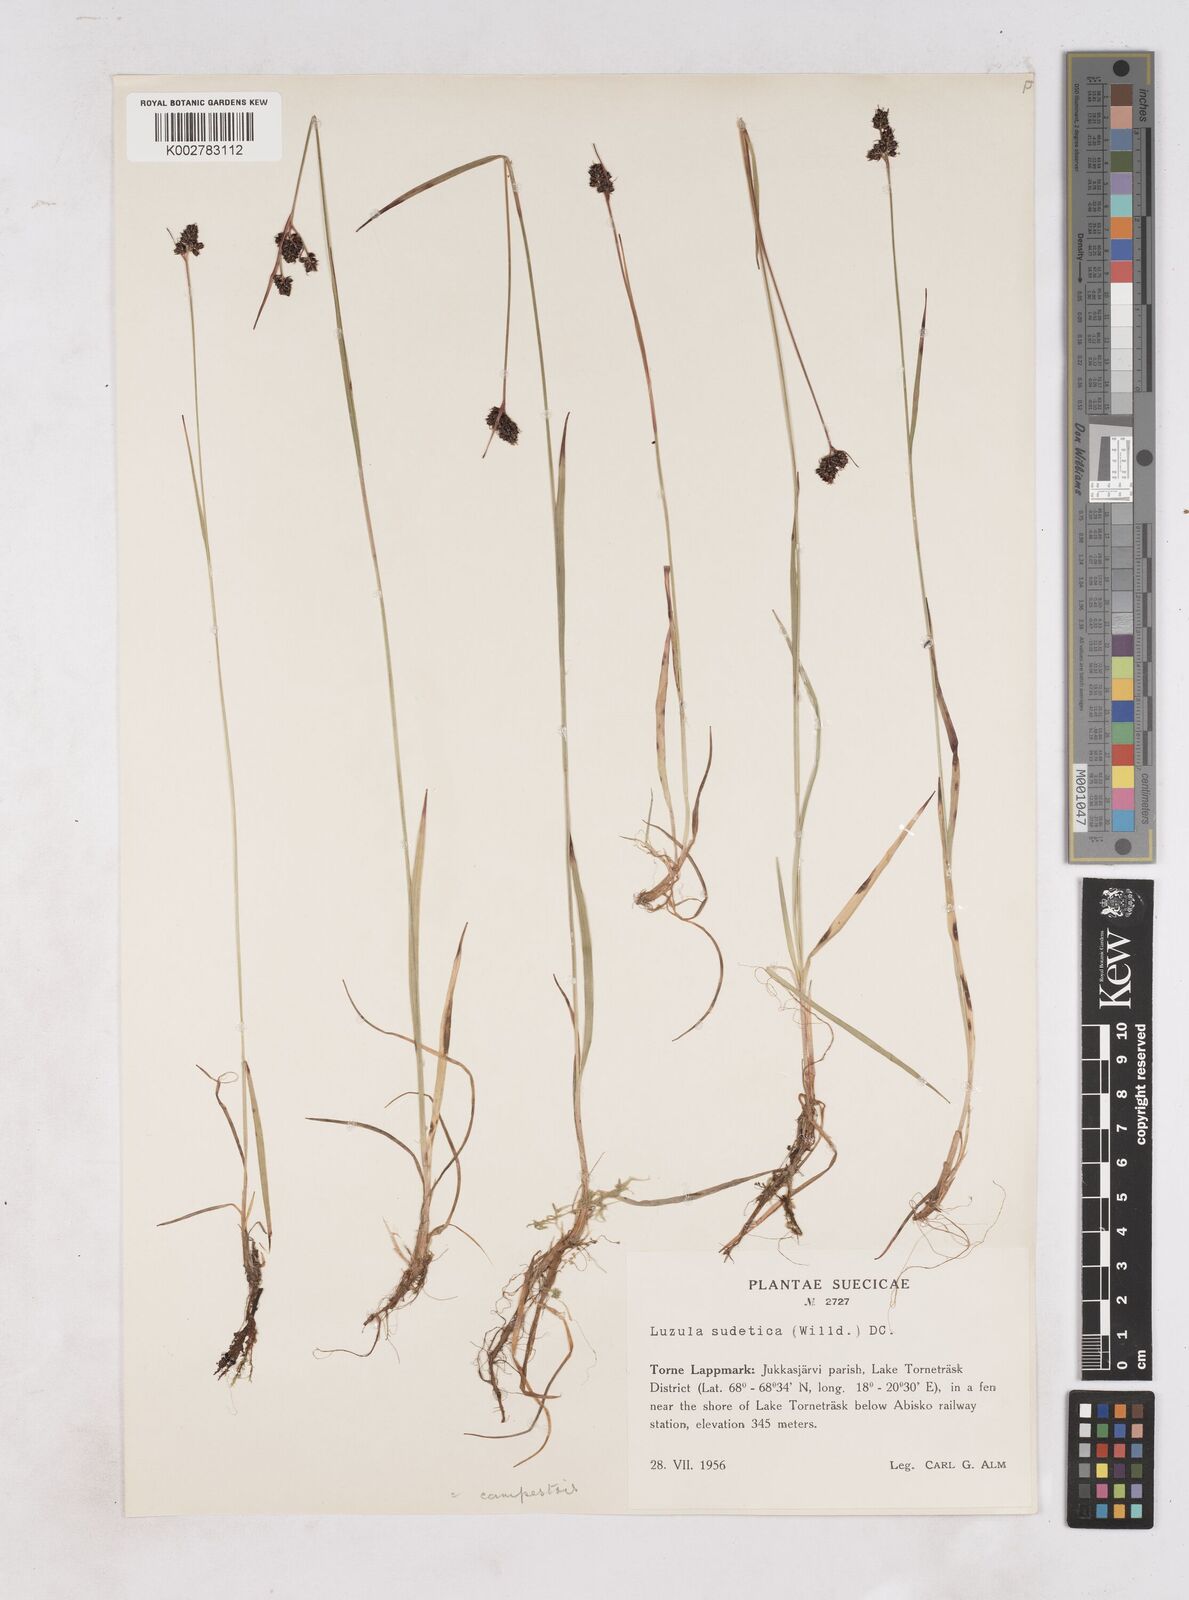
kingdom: Plantae
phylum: Tracheophyta
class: Liliopsida
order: Poales
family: Juncaceae
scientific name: Juncaceae
